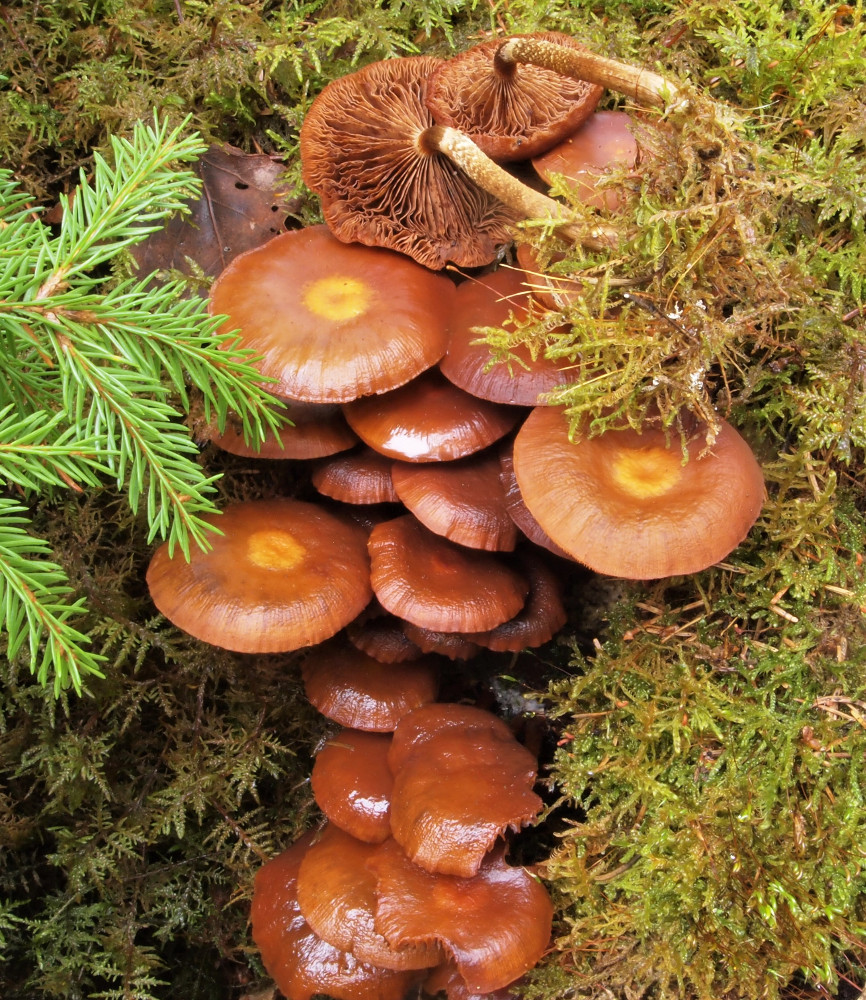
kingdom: Fungi
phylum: Basidiomycota
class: Agaricomycetes
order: Agaricales
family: Strophariaceae
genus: Kuehneromyces
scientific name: Kuehneromyces mutabilis
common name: foranderlig skælhat
